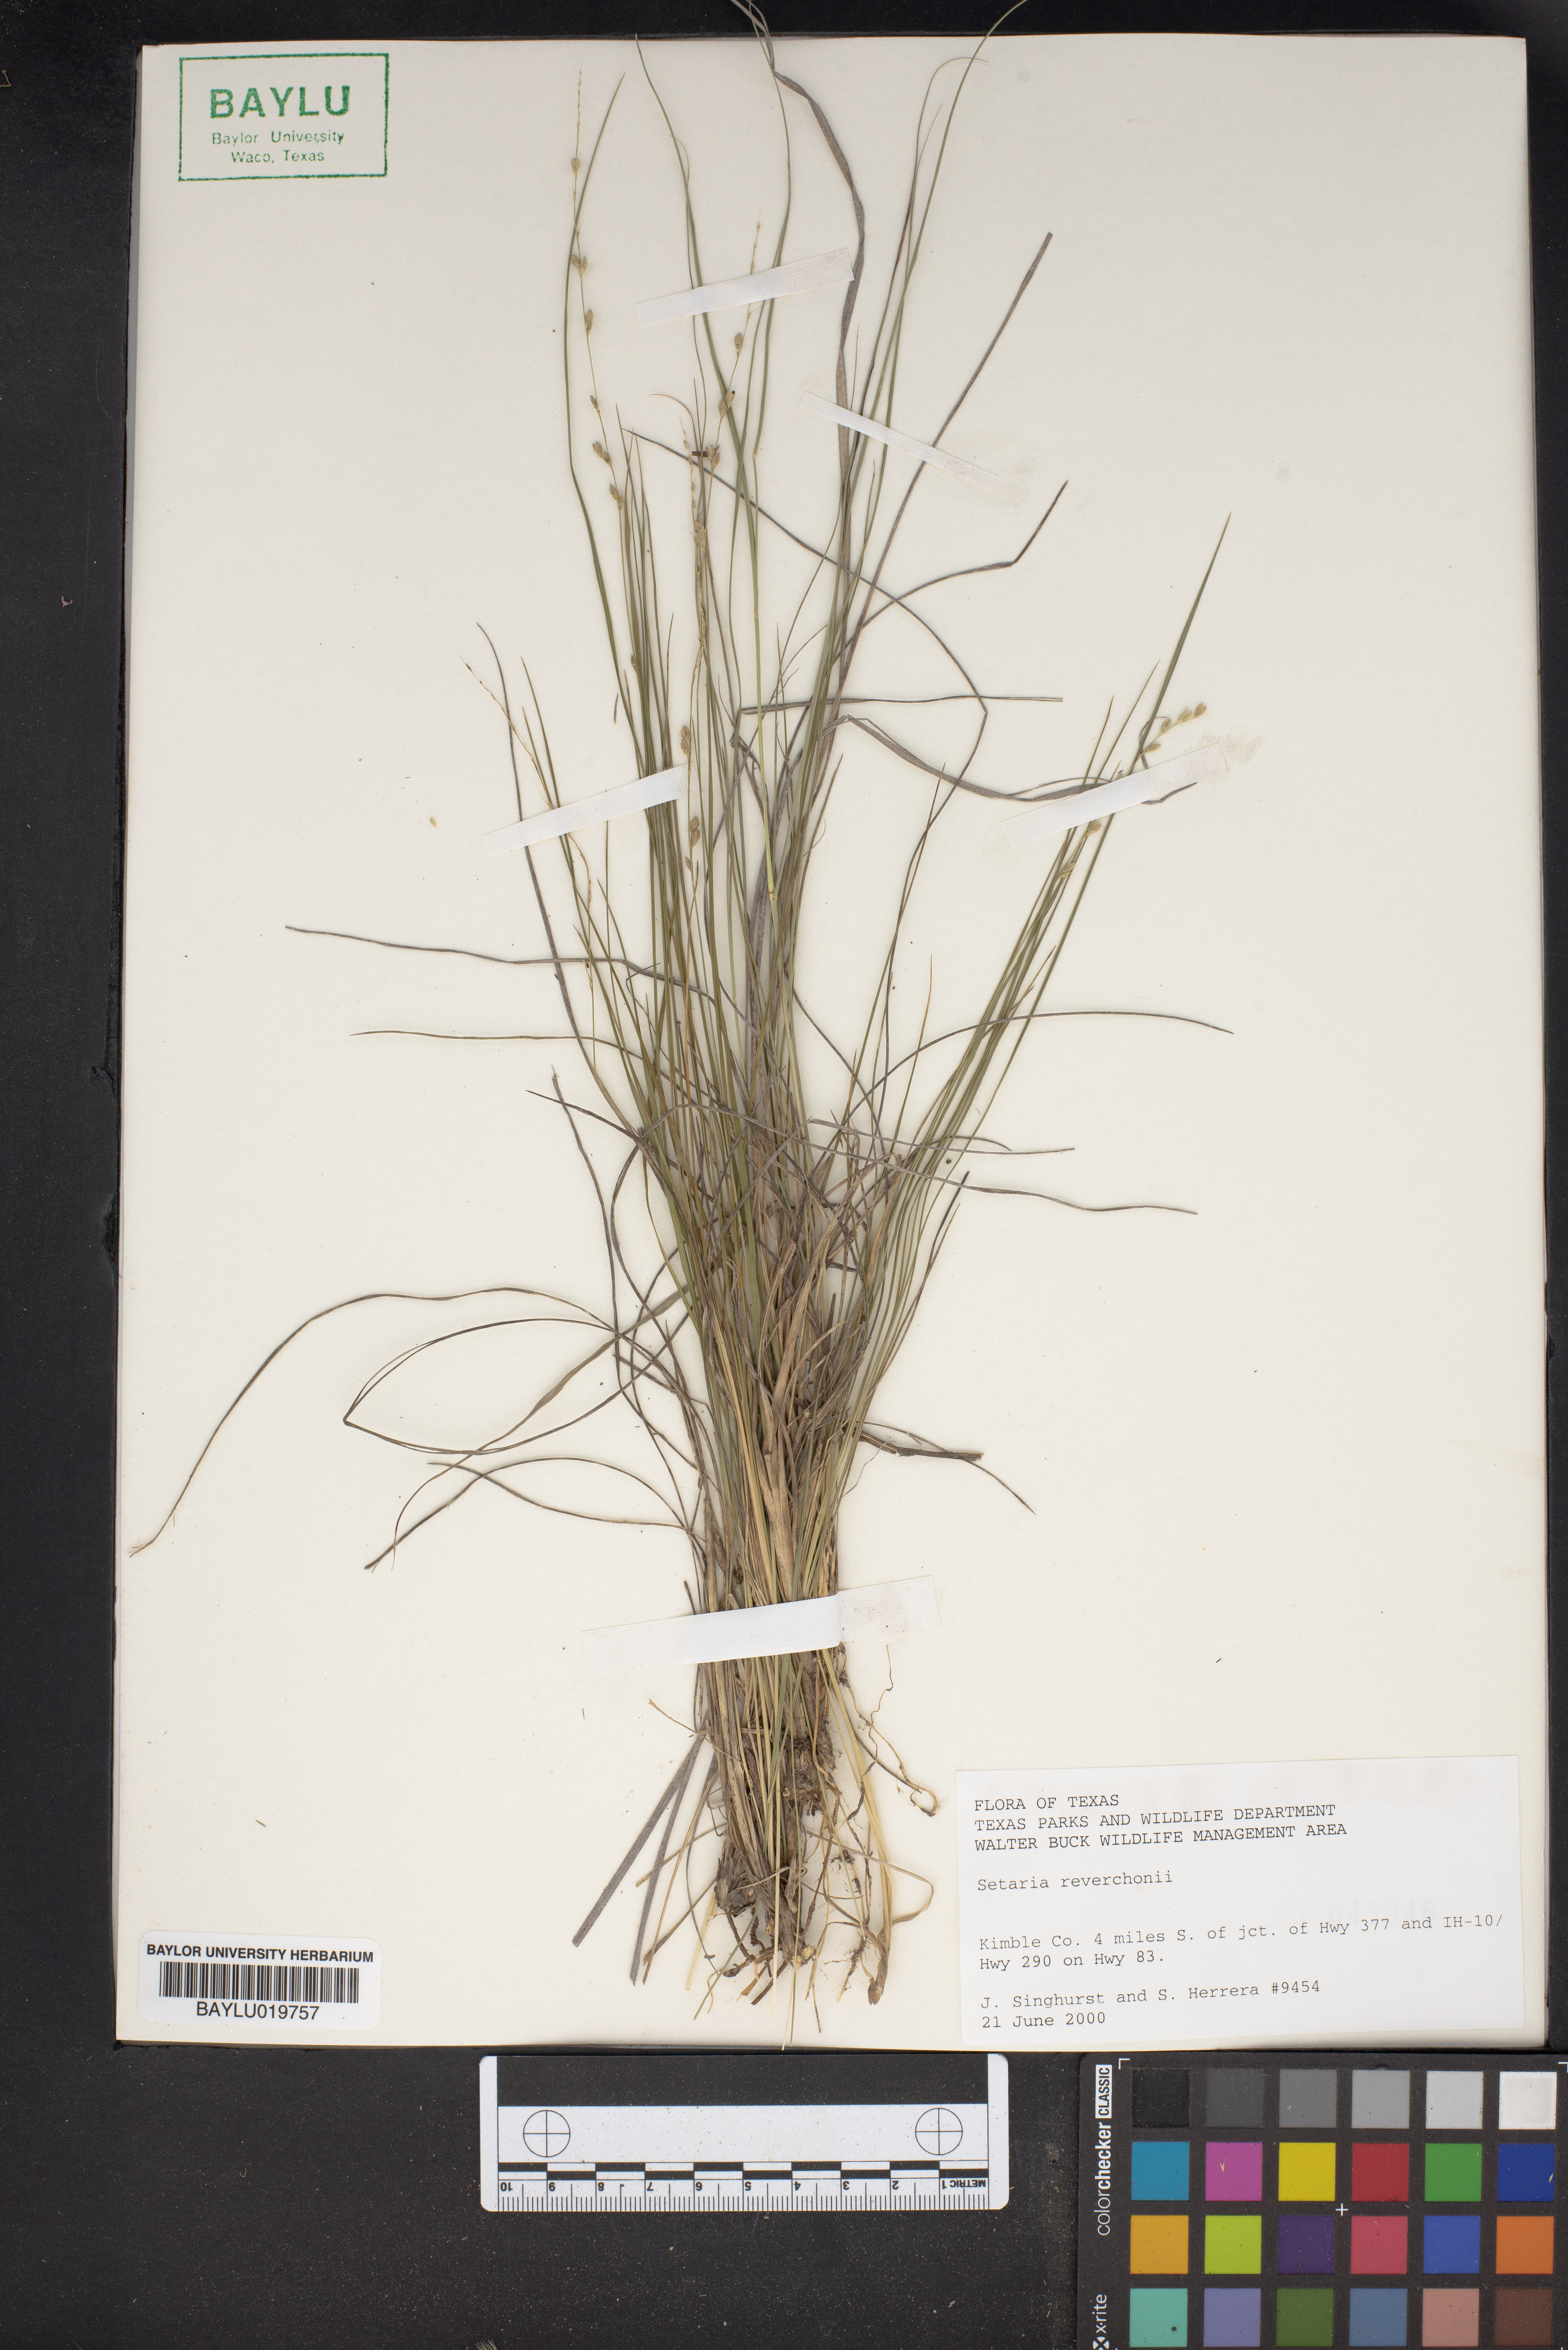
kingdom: Plantae
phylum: Tracheophyta
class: Liliopsida
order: Poales
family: Poaceae
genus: Setaria
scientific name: Setaria reverchonii
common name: Reverchon's bristle grass
